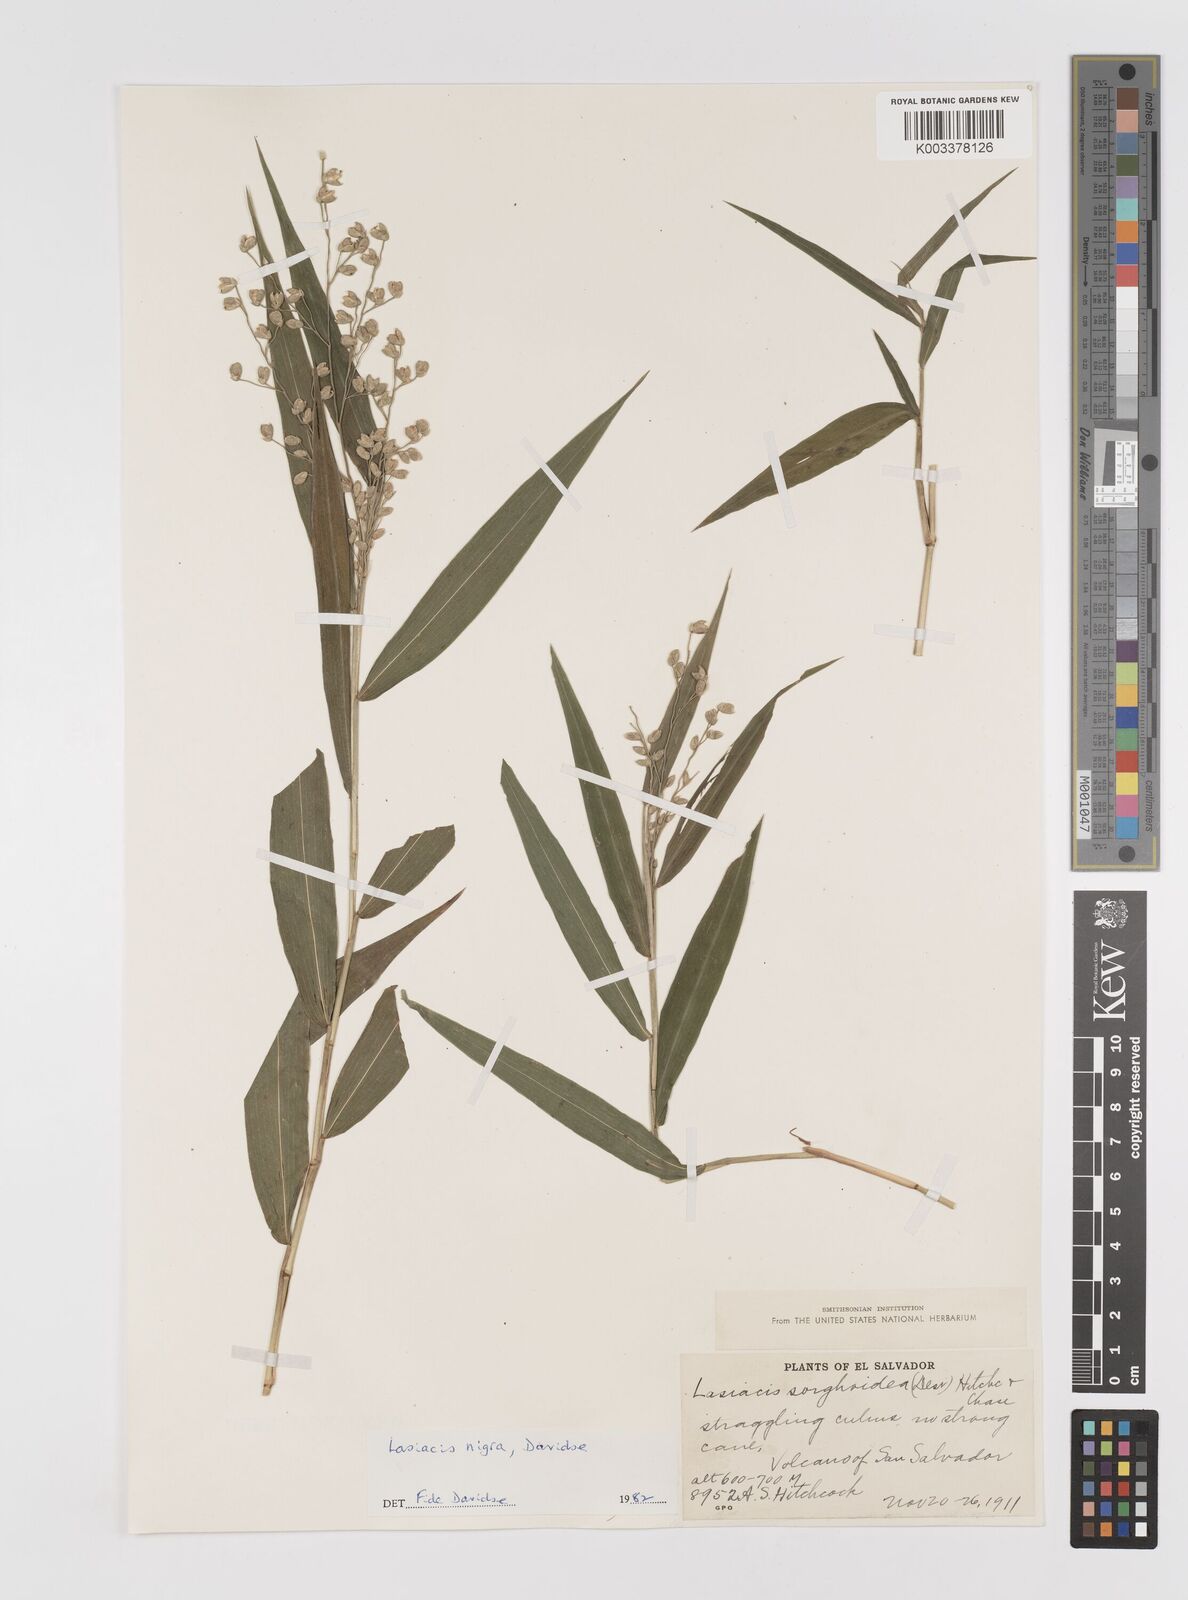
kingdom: Plantae
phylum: Tracheophyta
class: Liliopsida
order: Poales
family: Poaceae
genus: Lasiacis
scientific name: Lasiacis nigra
